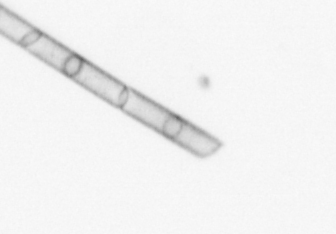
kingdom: Chromista
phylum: Ochrophyta
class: Bacillariophyceae
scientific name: Bacillariophyceae
